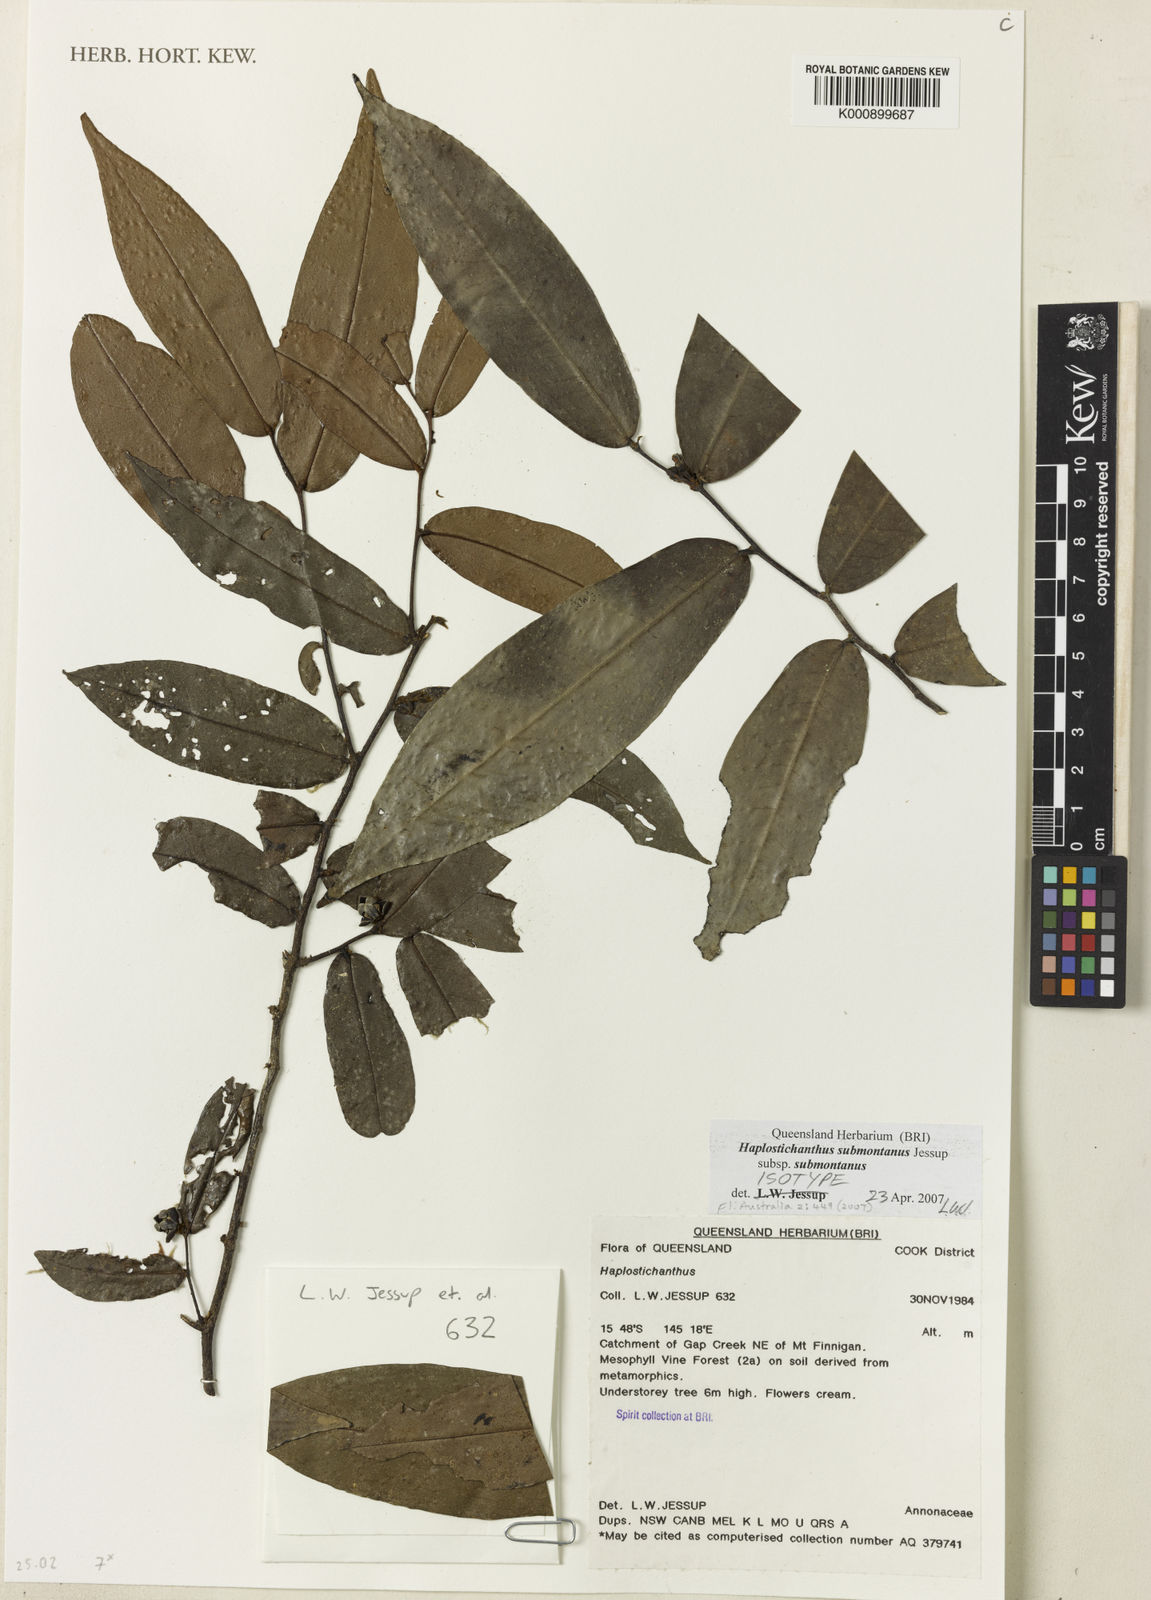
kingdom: Plantae
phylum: Tracheophyta
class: Magnoliopsida
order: Magnoliales
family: Annonaceae
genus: Haplostichanthus
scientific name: Haplostichanthus submontanus
